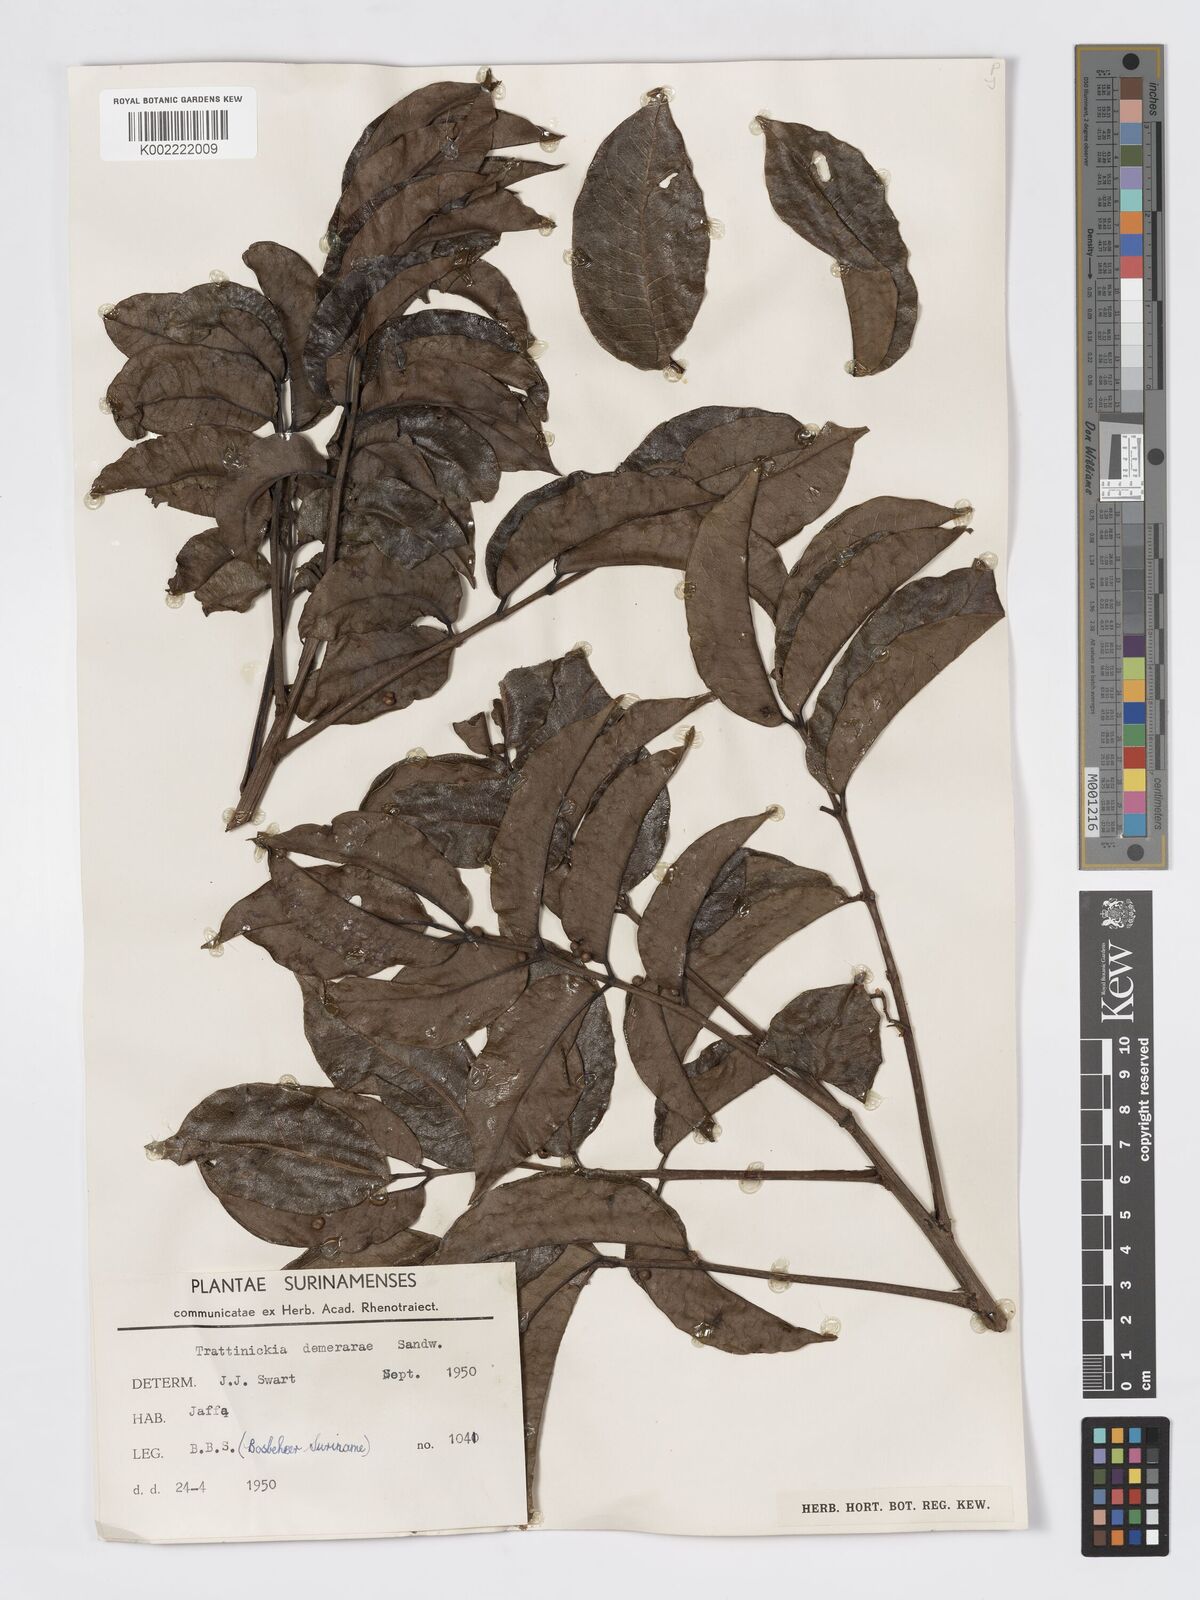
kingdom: Plantae
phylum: Tracheophyta
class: Magnoliopsida
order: Sapindales
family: Burseraceae
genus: Trattinnickia
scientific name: Trattinnickia demerarae
